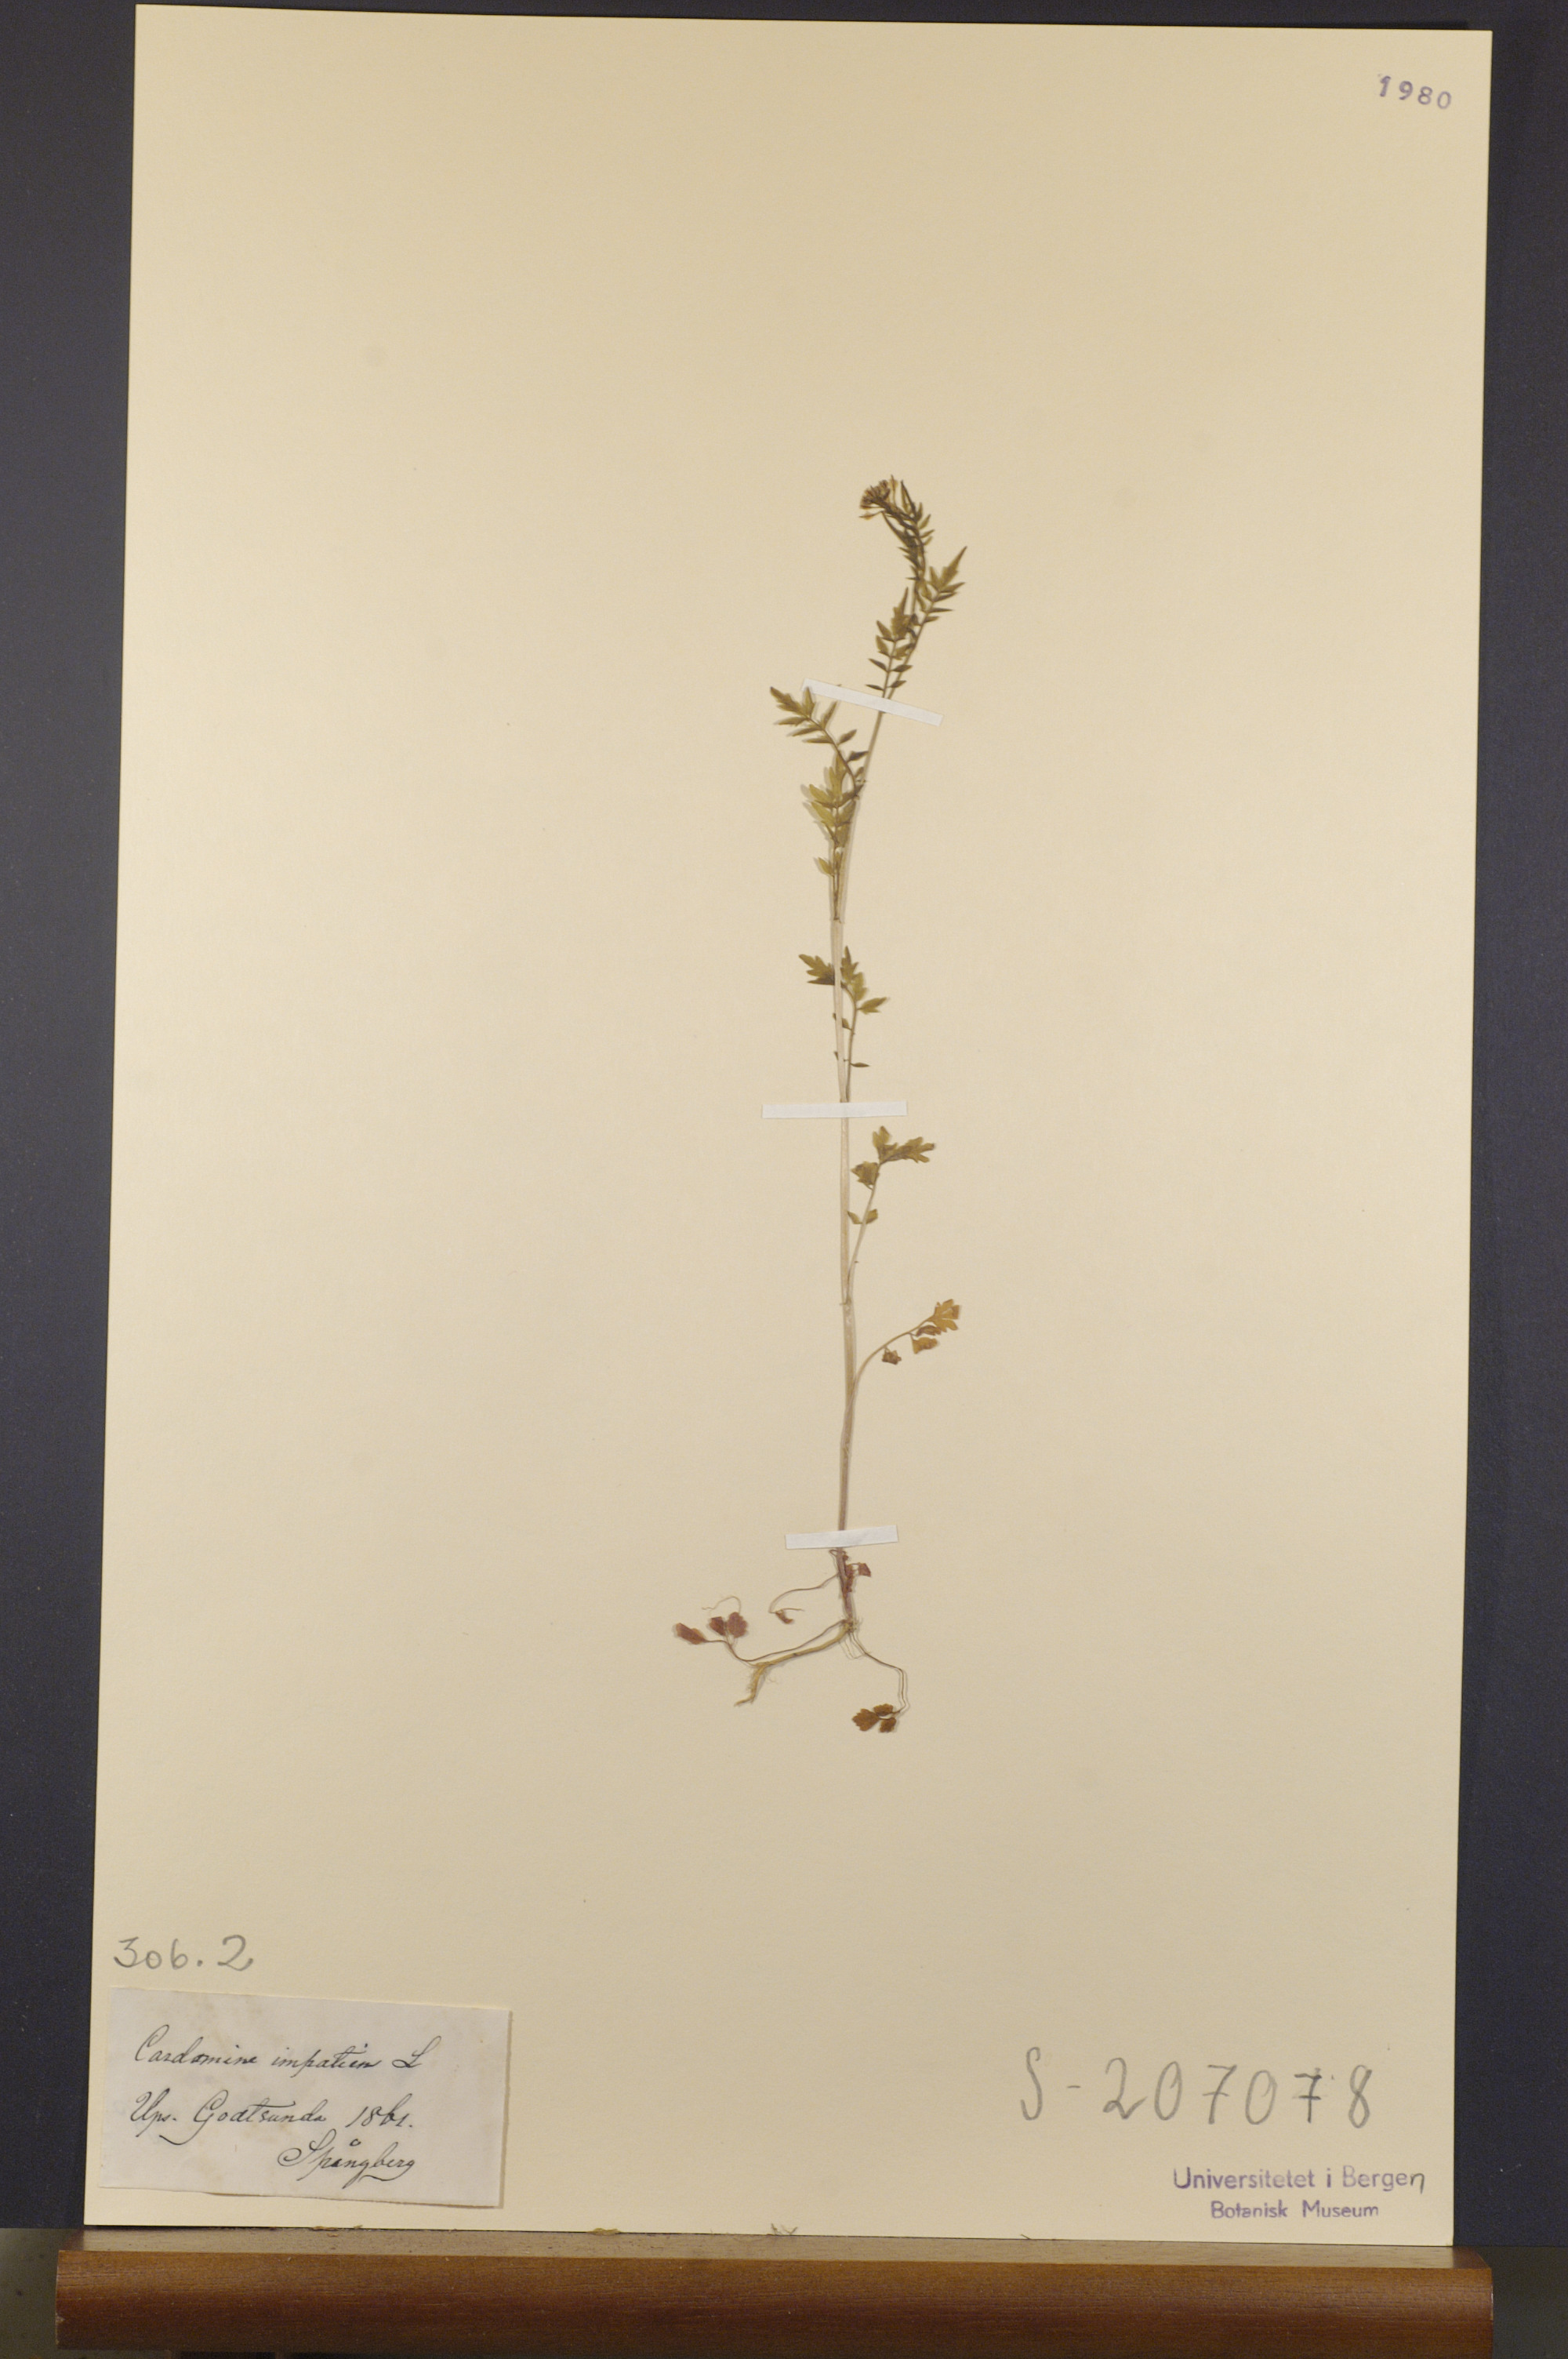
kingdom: Plantae
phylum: Tracheophyta
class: Magnoliopsida
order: Brassicales
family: Brassicaceae
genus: Cardamine
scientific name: Cardamine impatiens
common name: Narrow-leaved bitter-cress
